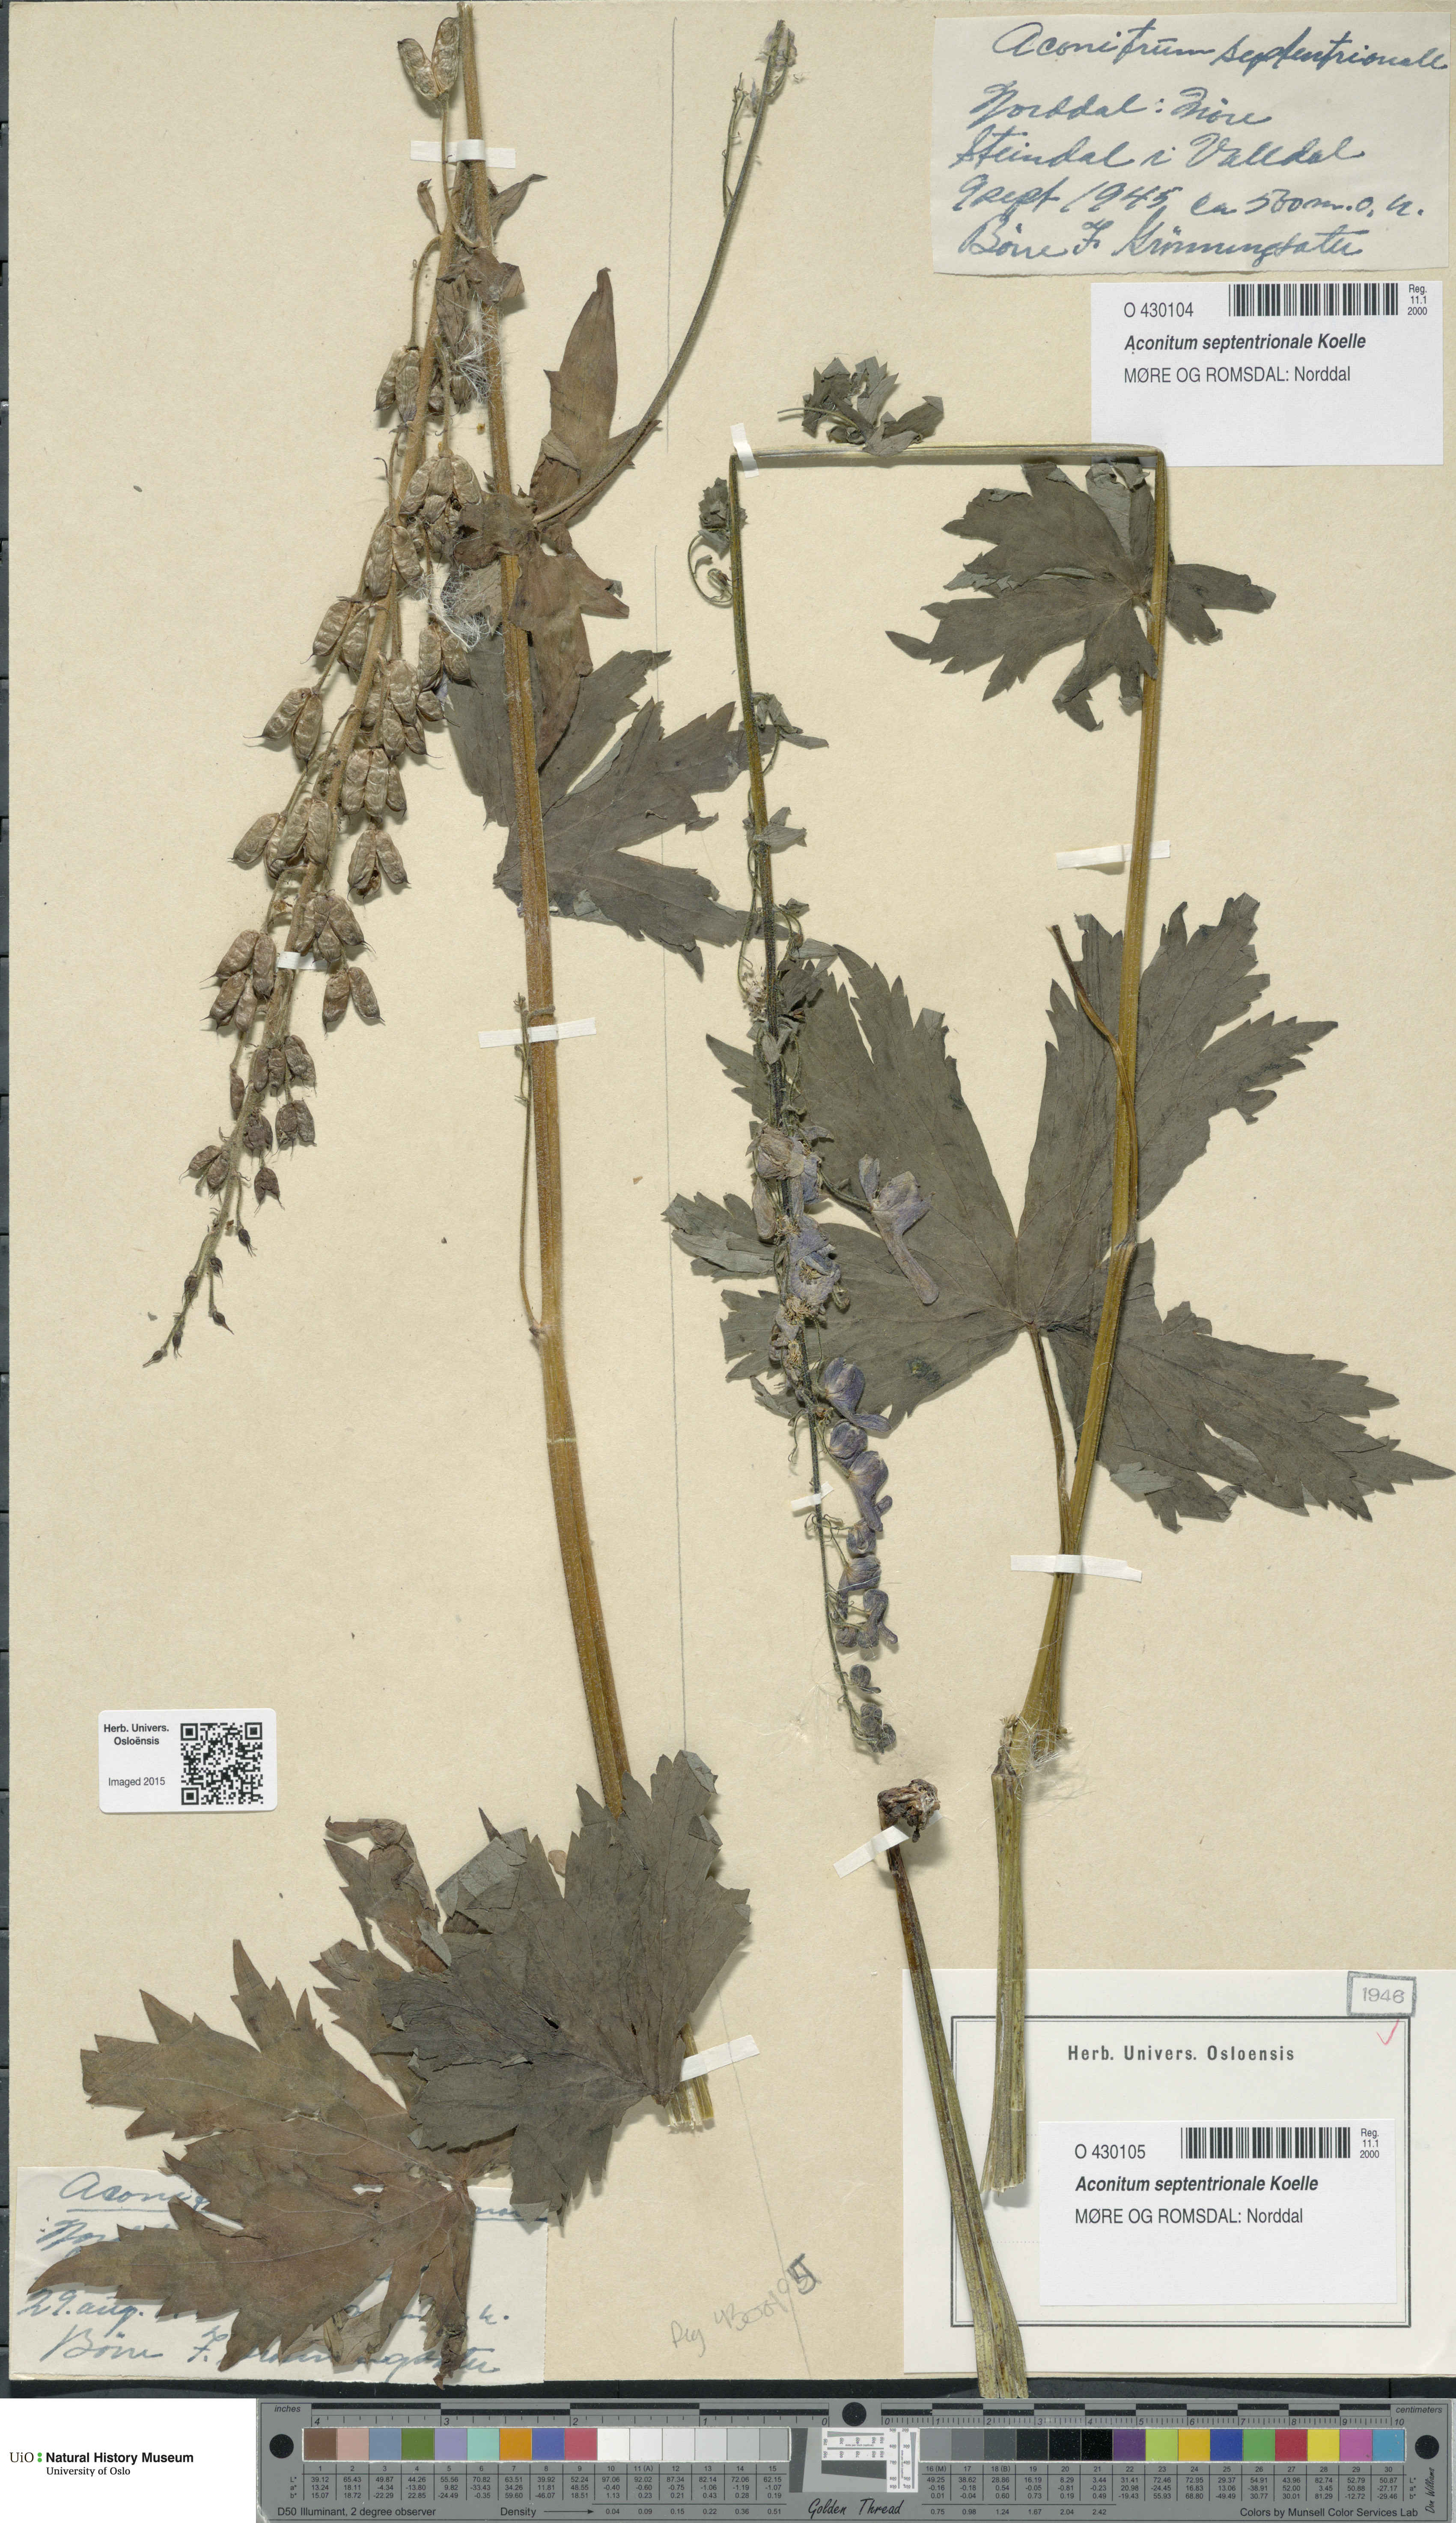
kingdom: Plantae
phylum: Tracheophyta
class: Magnoliopsida
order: Ranunculales
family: Ranunculaceae
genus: Aconitum
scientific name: Aconitum septentrionale
